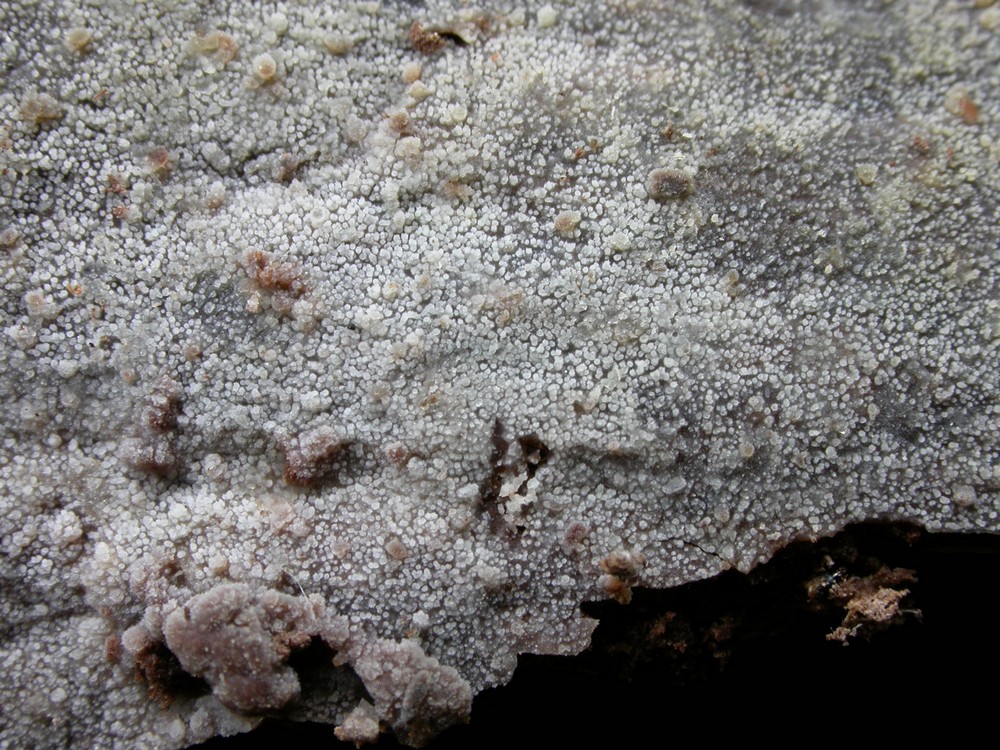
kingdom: Fungi
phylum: Basidiomycota
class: Agaricomycetes
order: Polyporales
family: Meruliaceae
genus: Scopuloides
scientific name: Scopuloides rimosa
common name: dughinde
